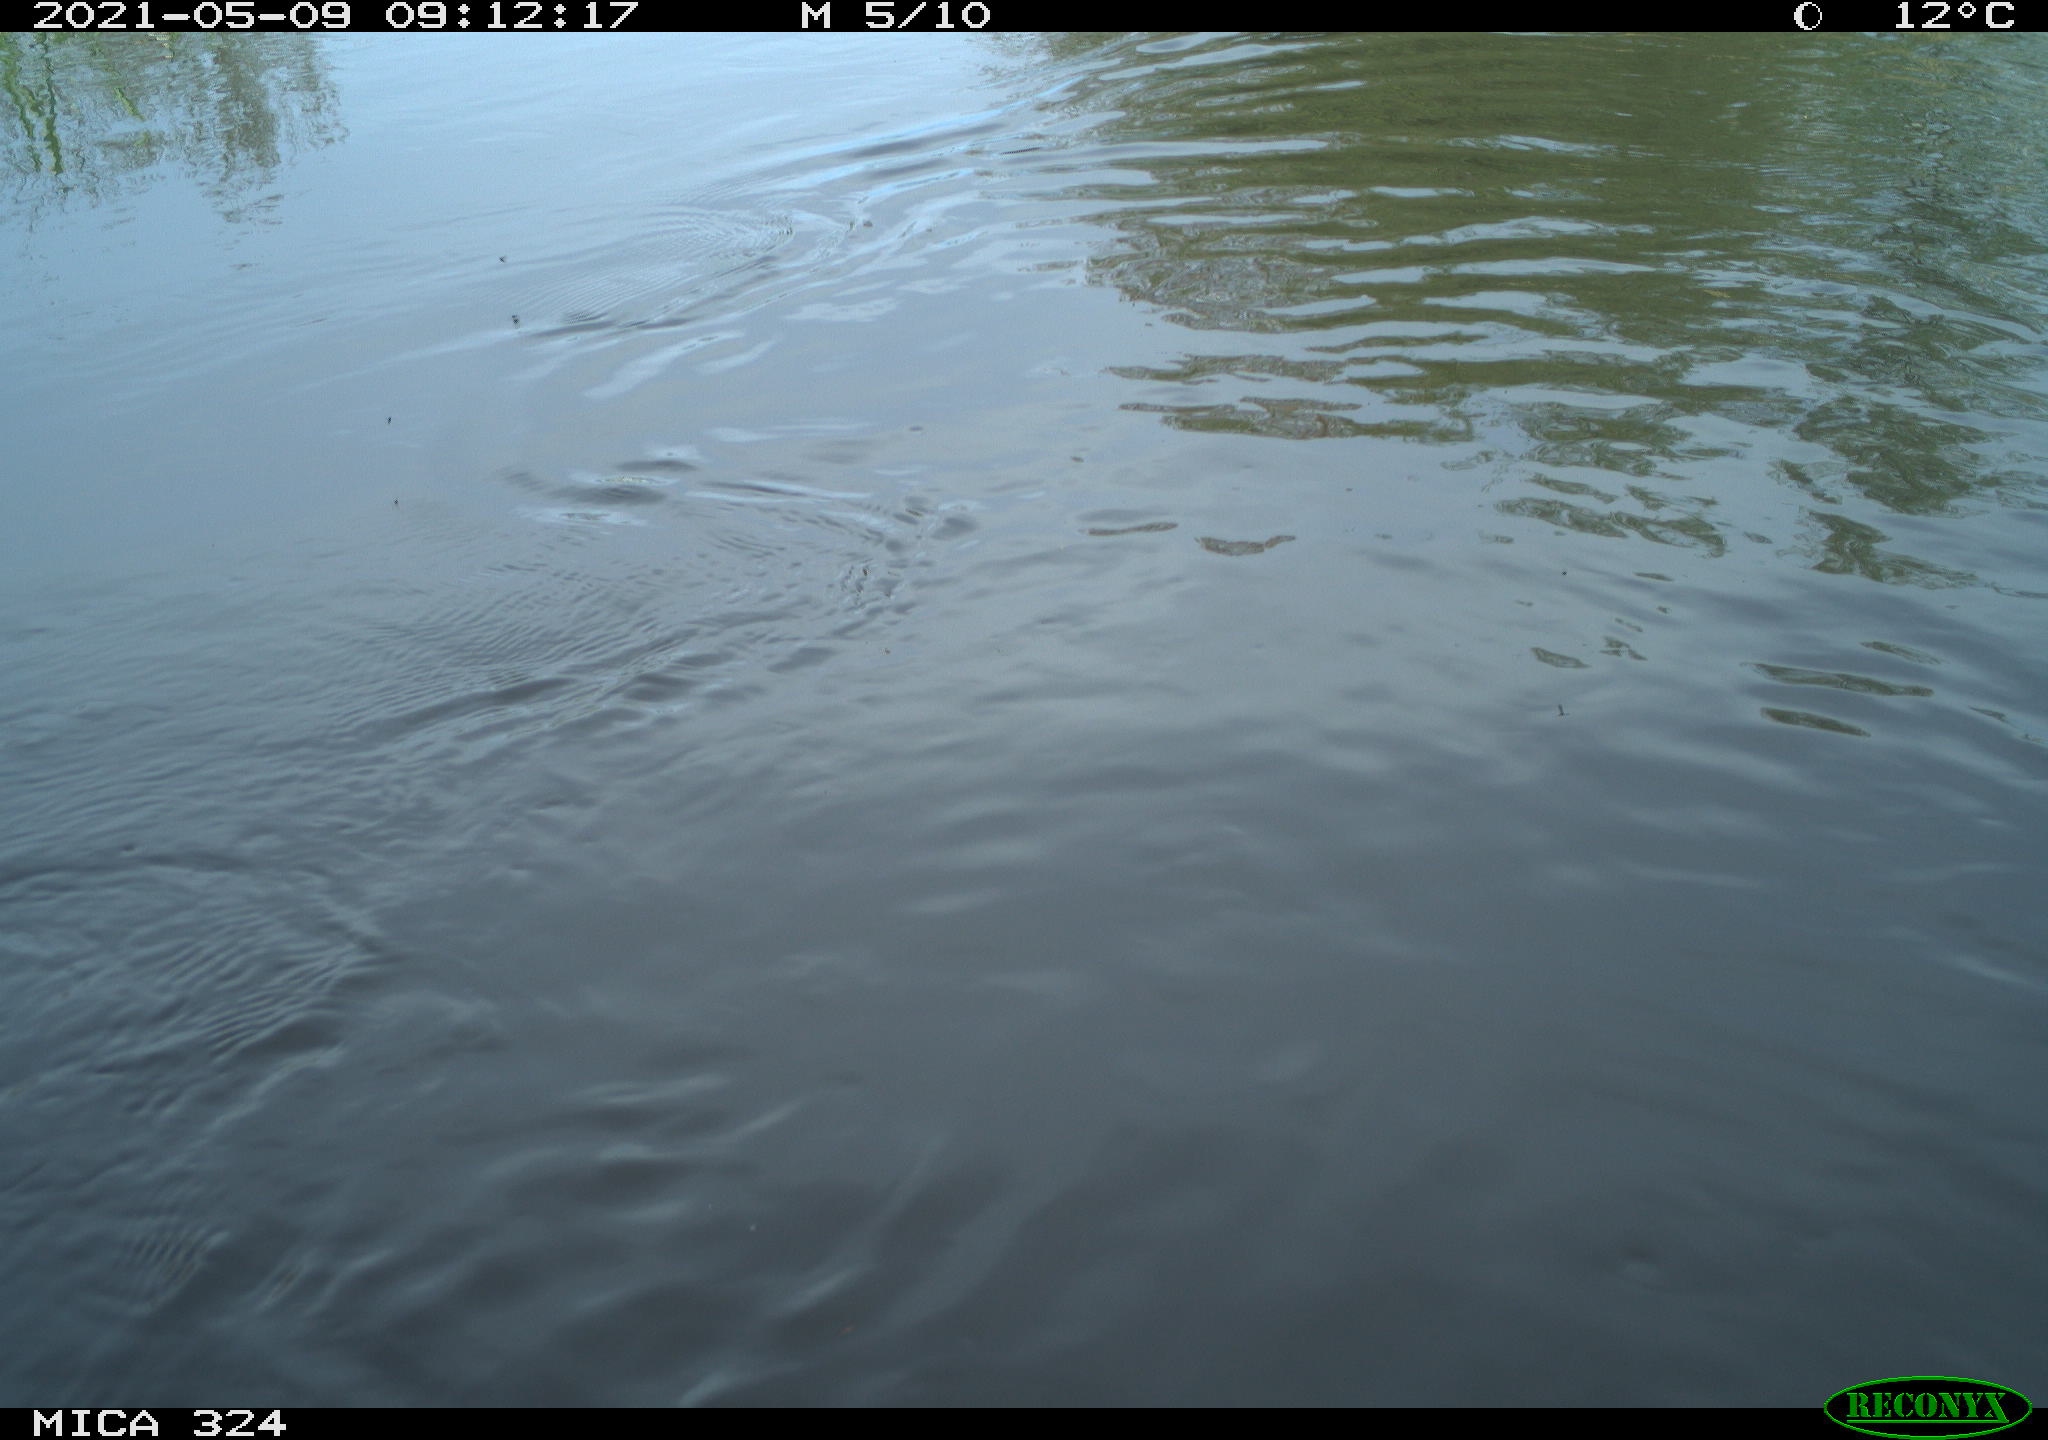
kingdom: Animalia
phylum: Chordata
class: Aves
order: Anseriformes
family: Anatidae
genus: Anas
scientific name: Anas platyrhynchos
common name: Mallard
